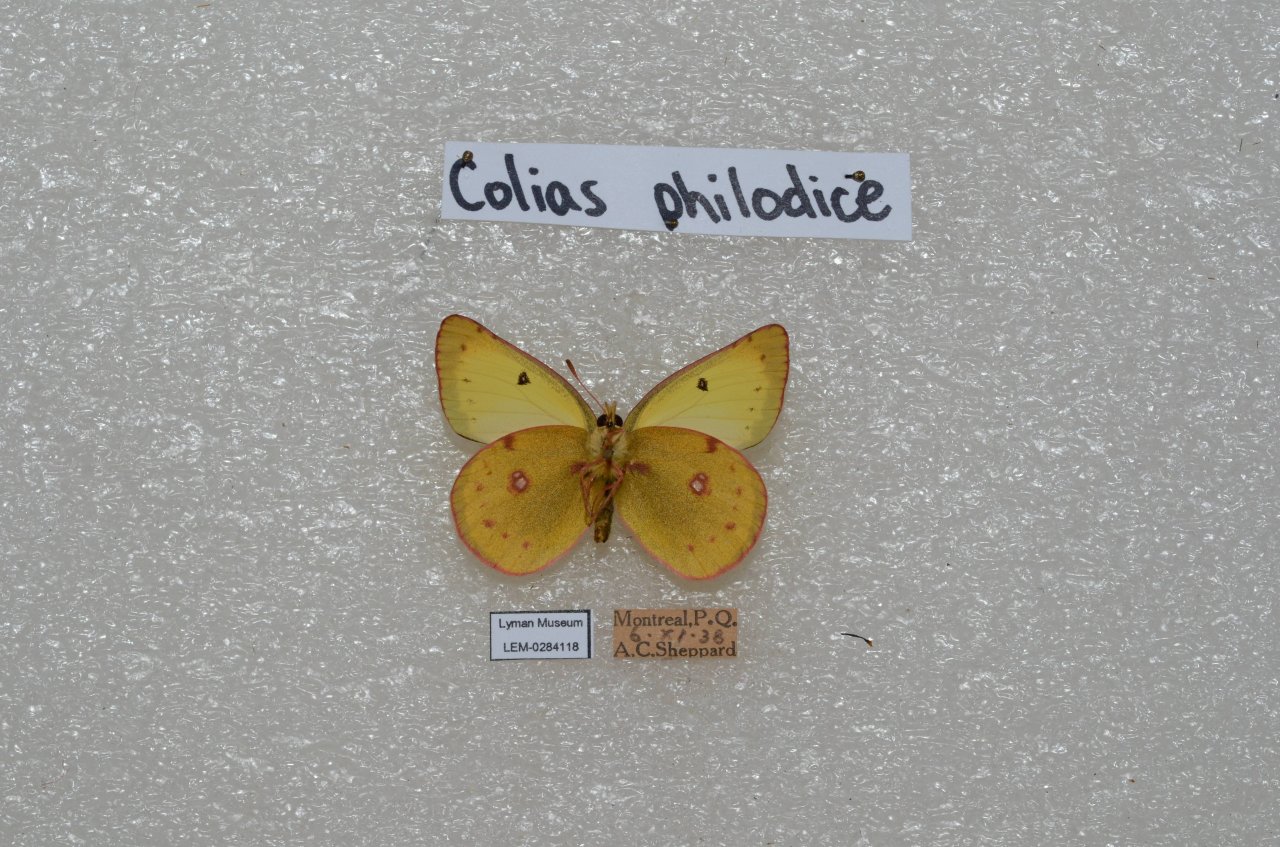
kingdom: Animalia
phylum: Arthropoda
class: Insecta
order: Lepidoptera
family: Pieridae
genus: Colias
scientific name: Colias philodice
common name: Clouded Sulphur
